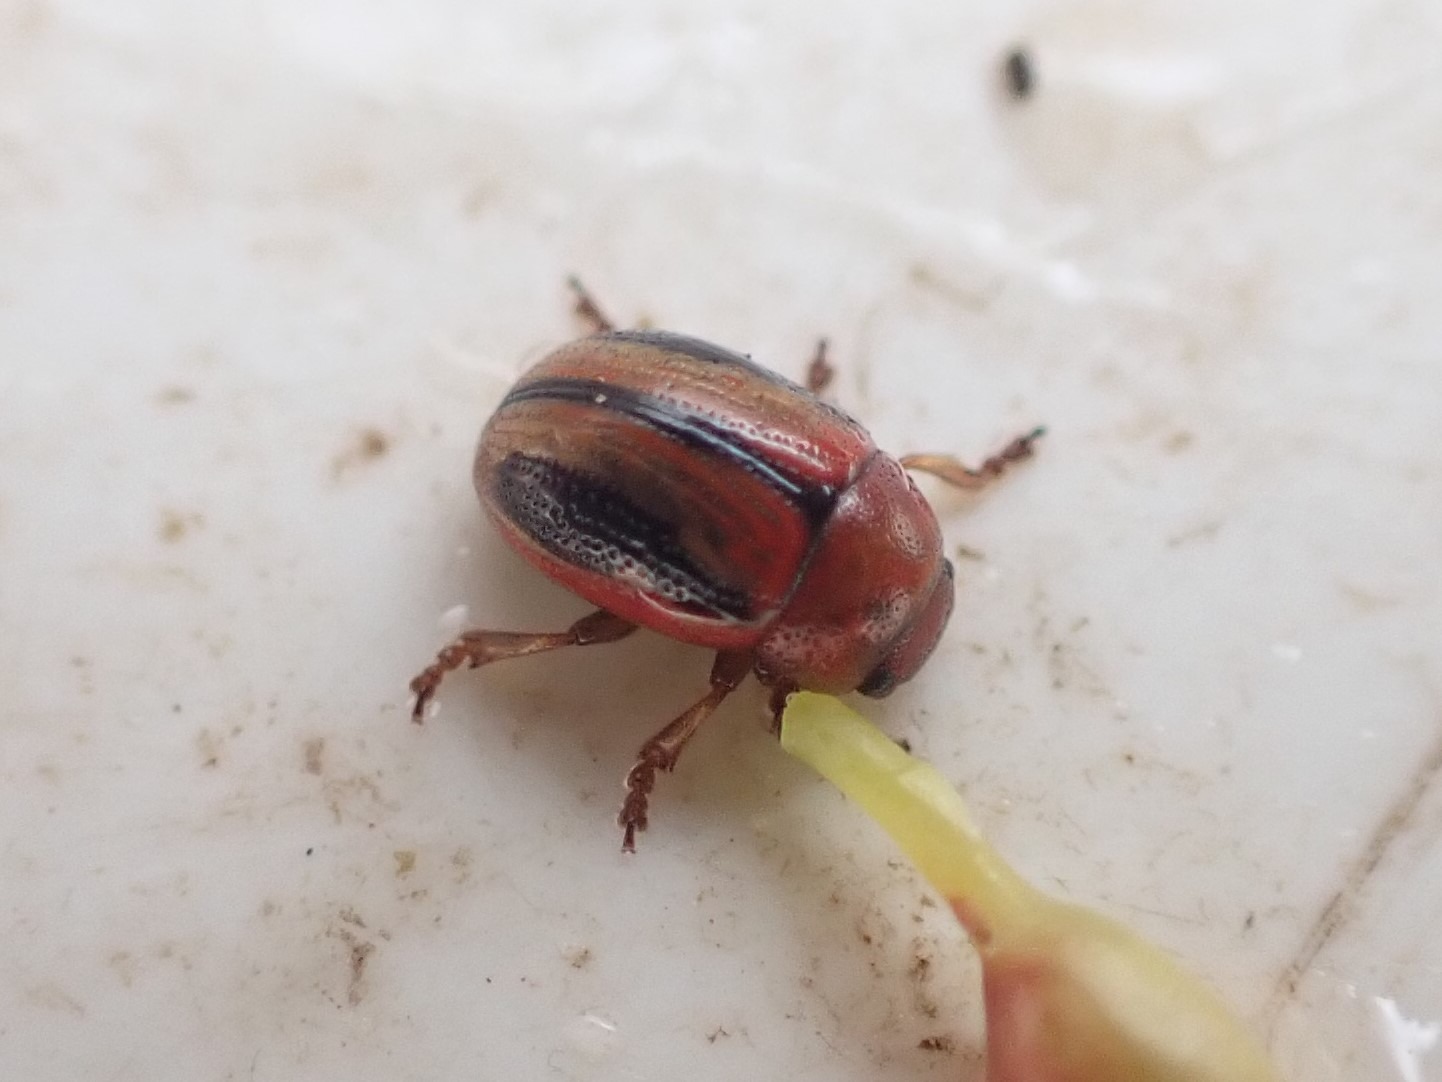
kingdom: Animalia
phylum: Arthropoda
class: Insecta
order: Coleoptera
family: Chrysomelidae
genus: Gonioctena
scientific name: Gonioctena olivacea
